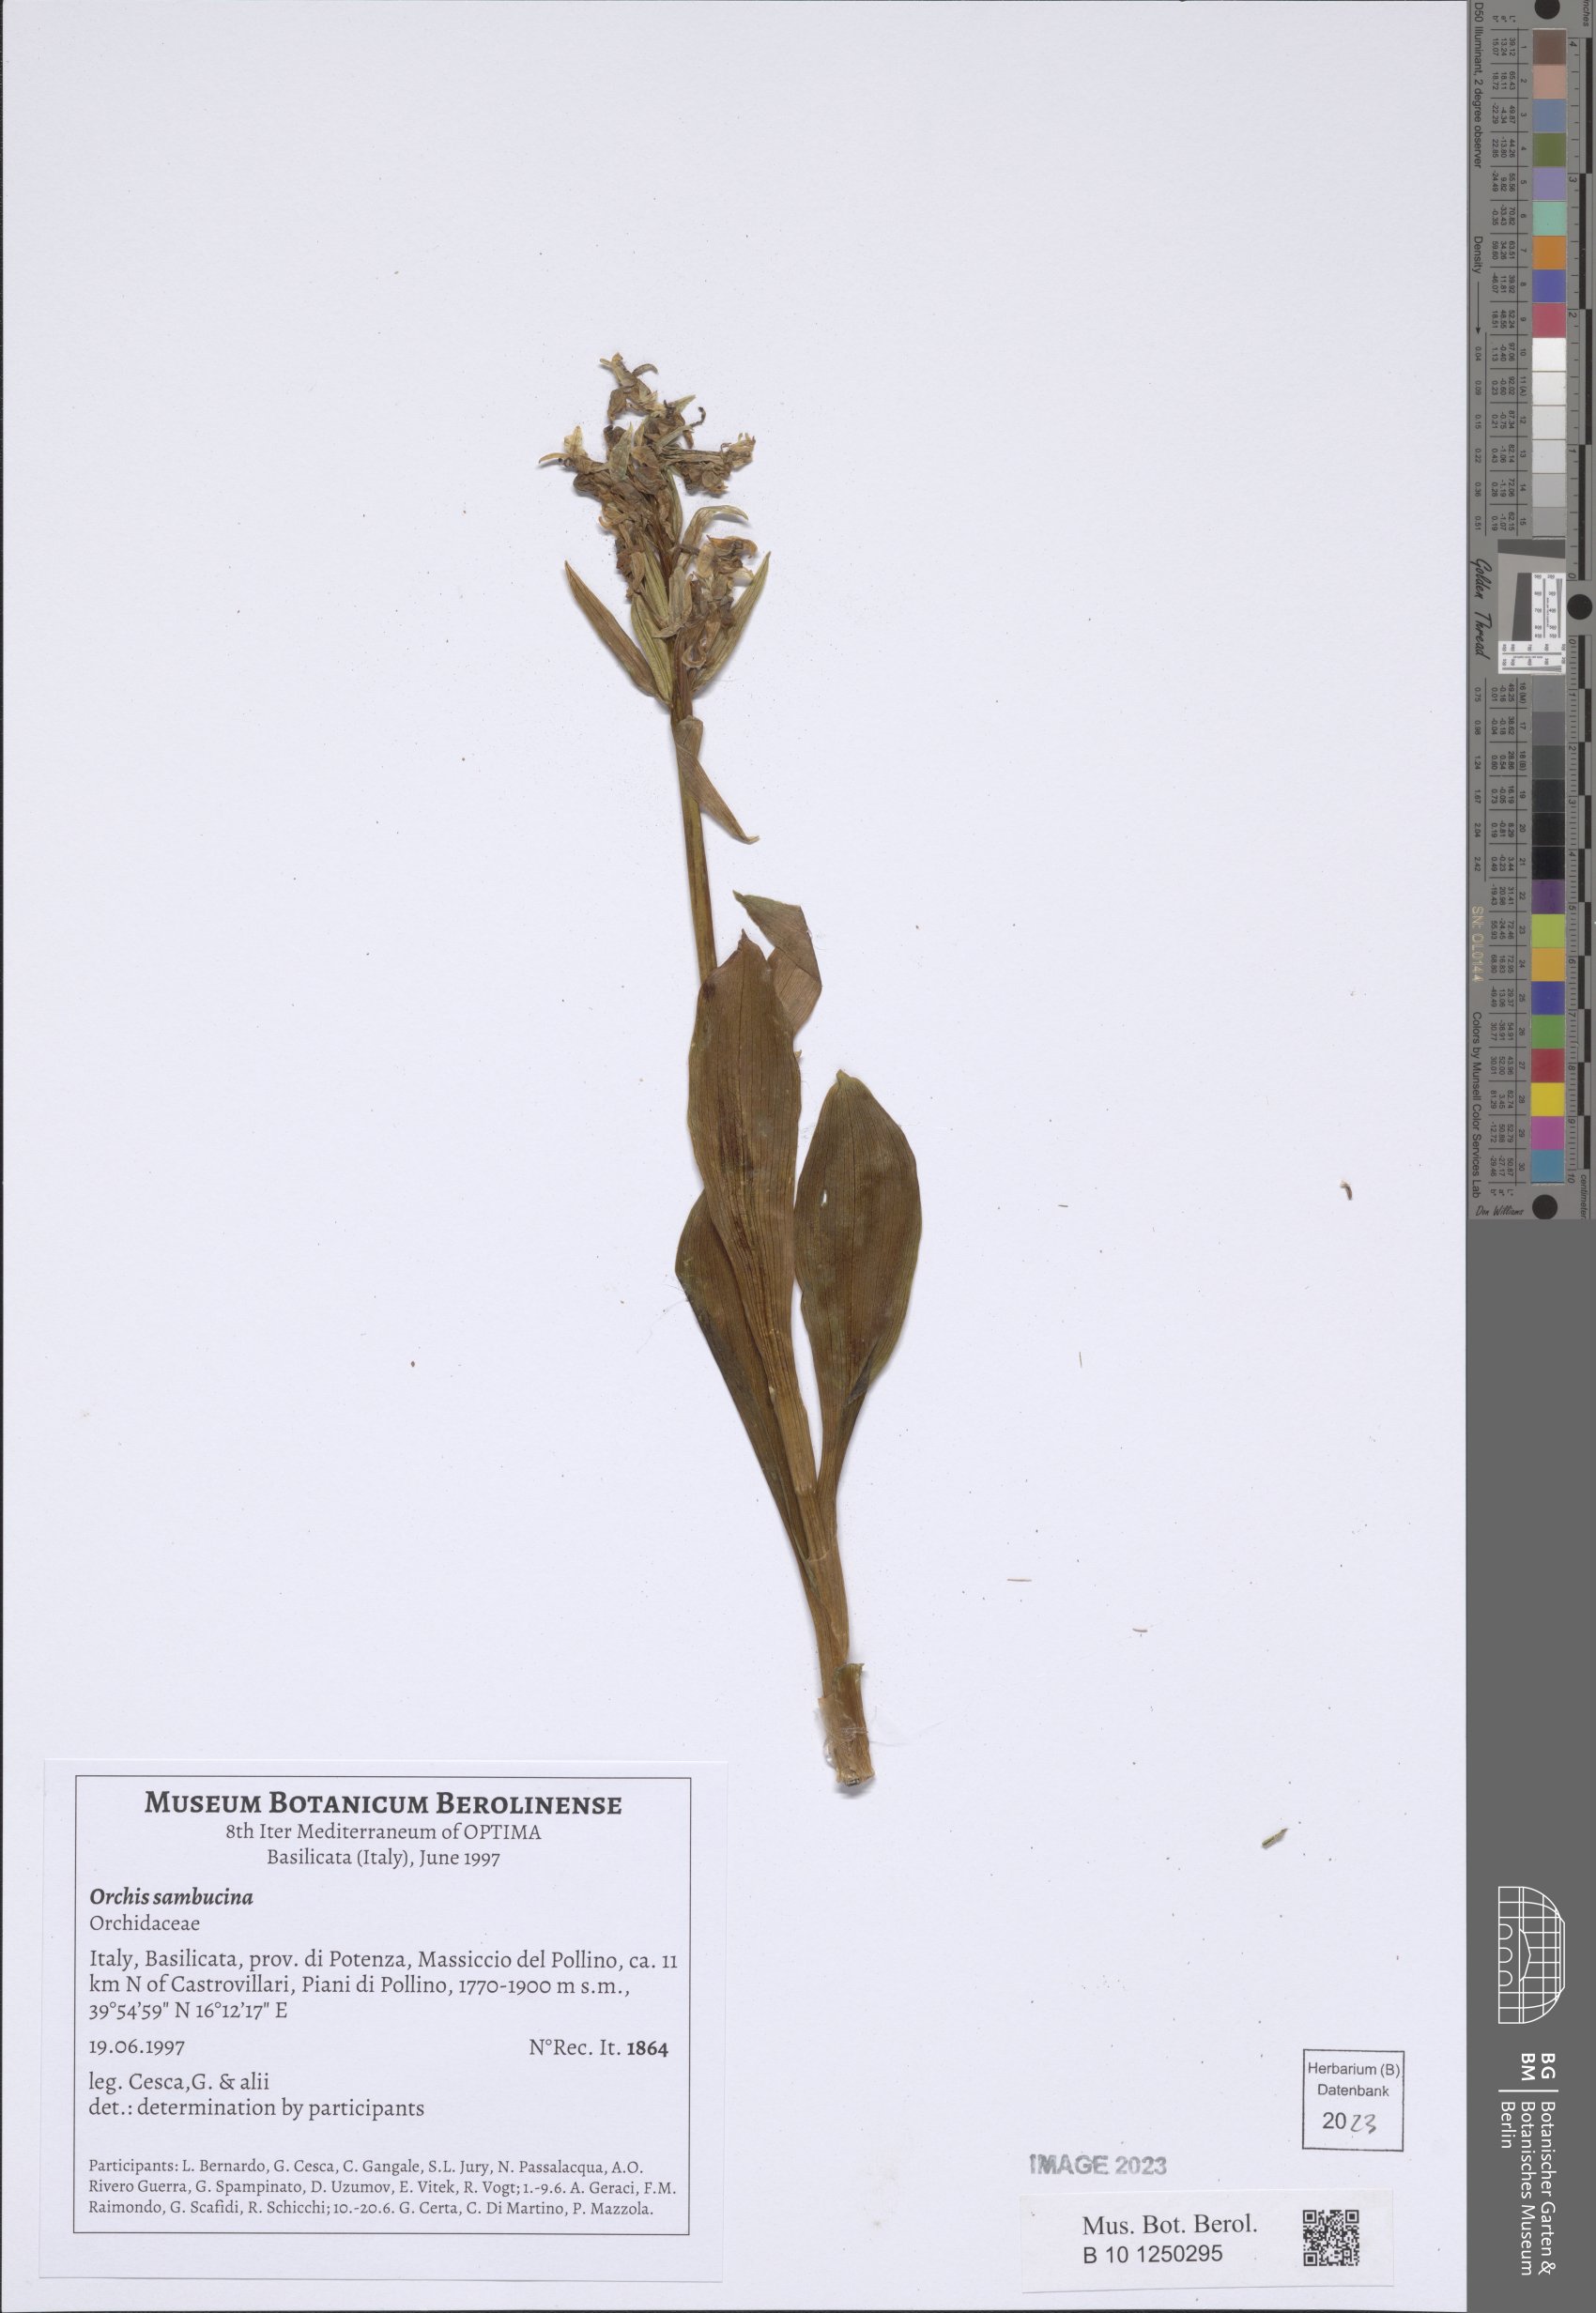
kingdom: Plantae
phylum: Tracheophyta
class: Liliopsida
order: Asparagales
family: Orchidaceae
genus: Dactylorhiza
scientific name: Dactylorhiza sambucina
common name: Elder-flowered orchid
